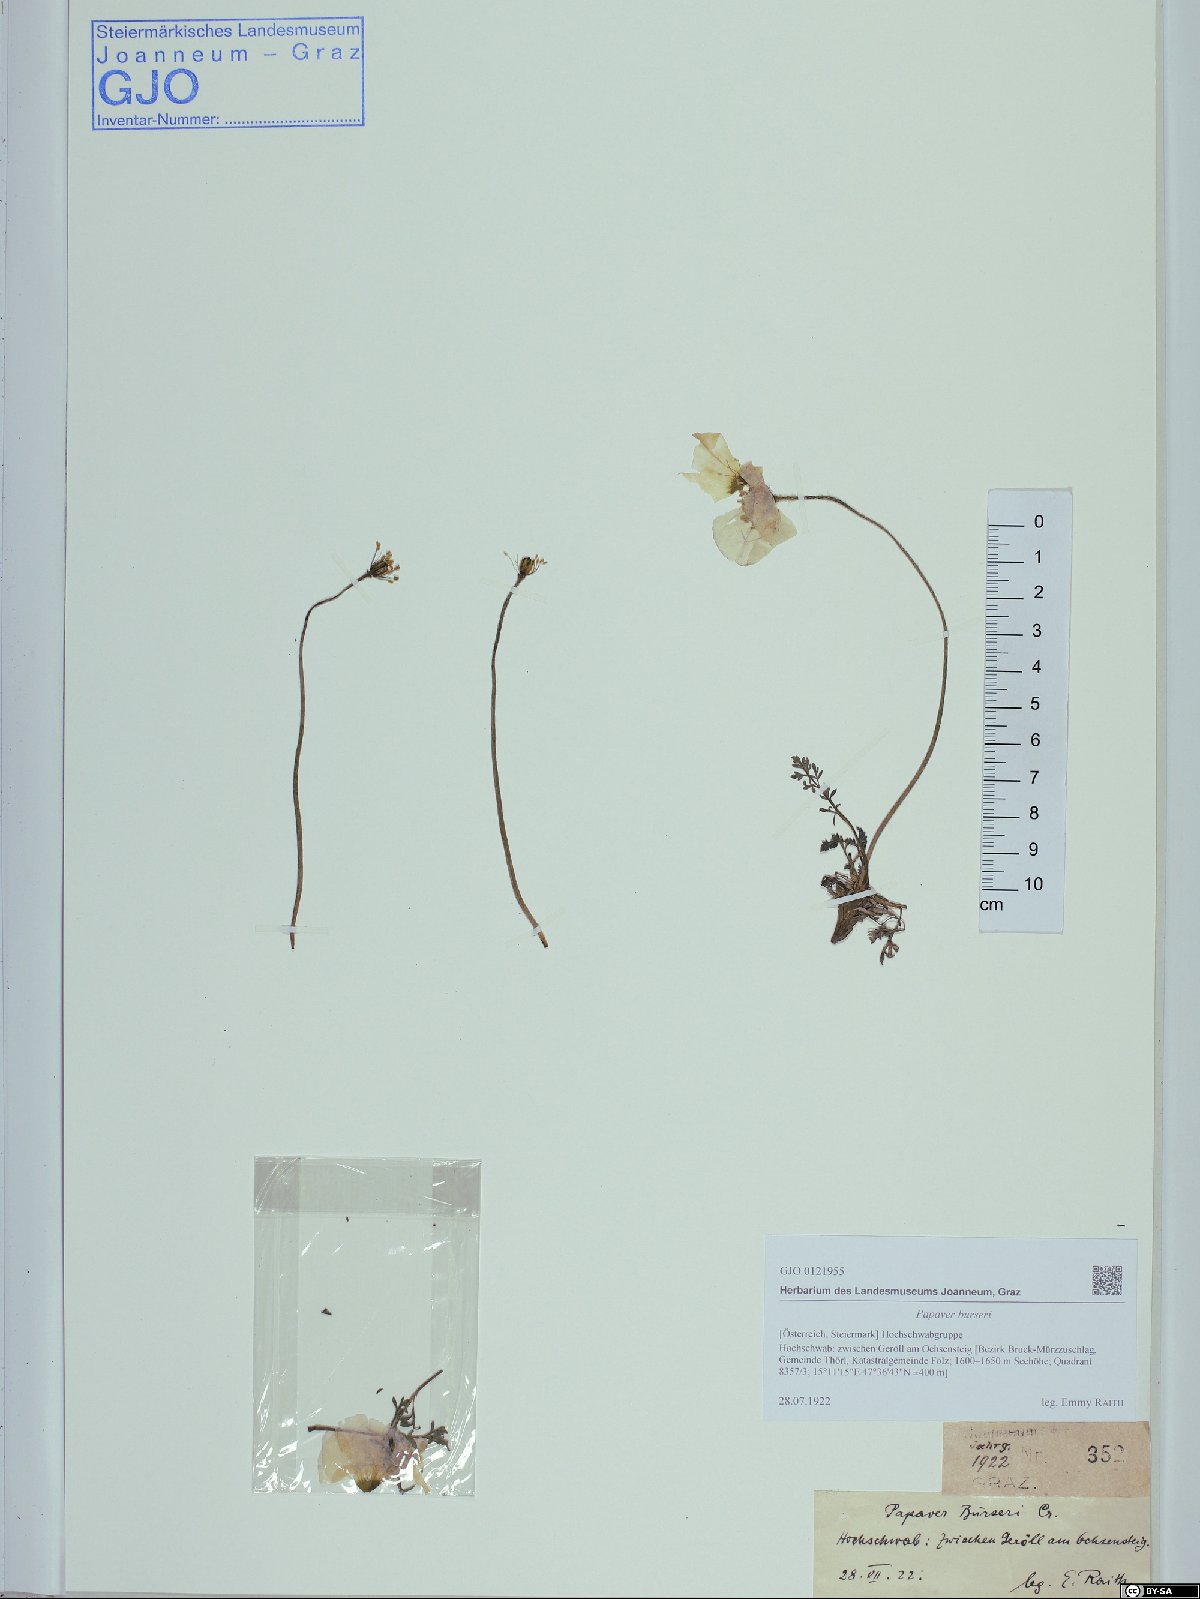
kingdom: Plantae
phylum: Tracheophyta
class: Magnoliopsida
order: Ranunculales
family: Papaveraceae
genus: Papaver
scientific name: Papaver alpinum
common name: Austrian poppy
